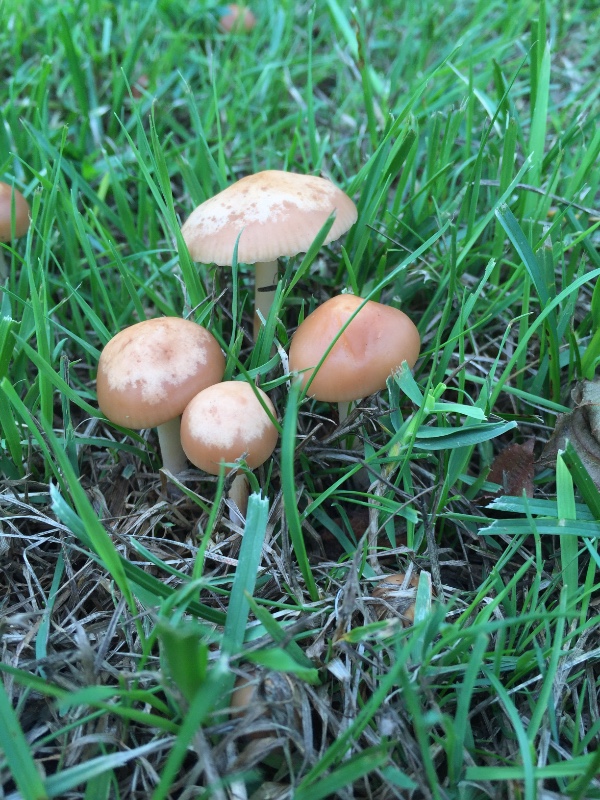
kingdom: Fungi
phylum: Basidiomycota
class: Agaricomycetes
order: Agaricales
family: Marasmiaceae
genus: Marasmius
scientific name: Marasmius oreades
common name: elledans-bruskhat
